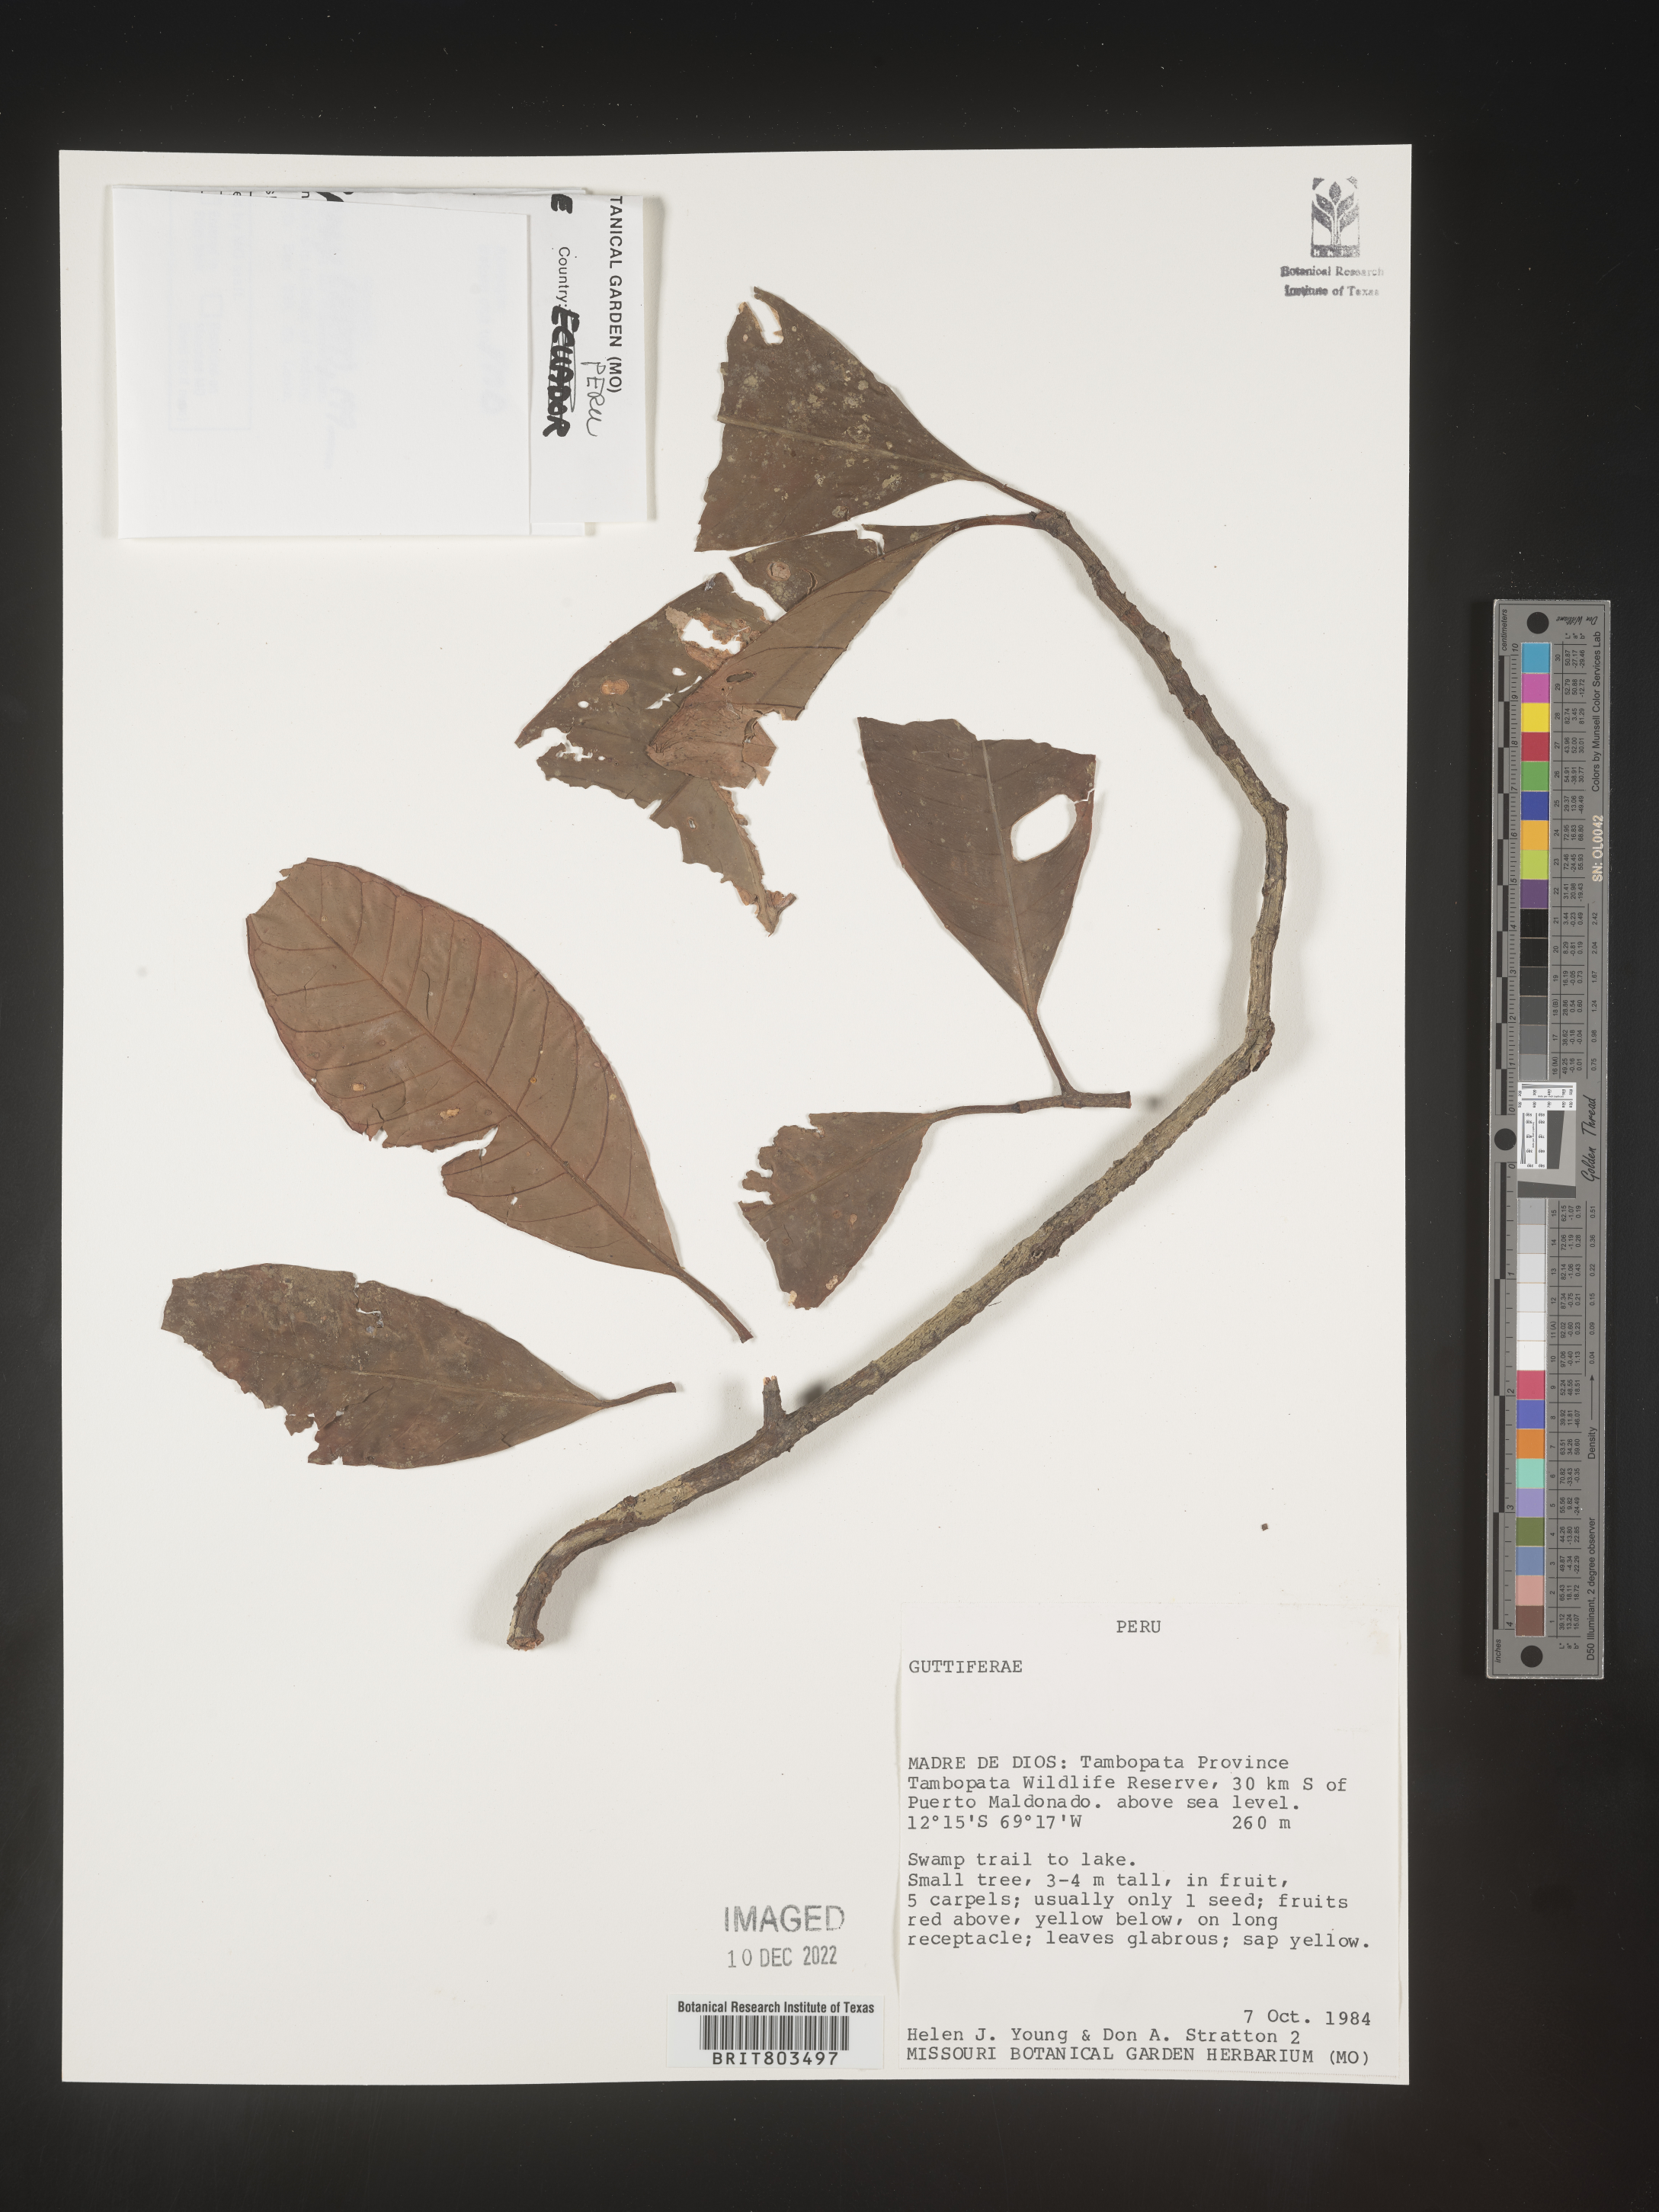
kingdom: Plantae
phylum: Tracheophyta
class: Magnoliopsida
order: Malpighiales
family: Clusiaceae
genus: Tovomita
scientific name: Tovomita
